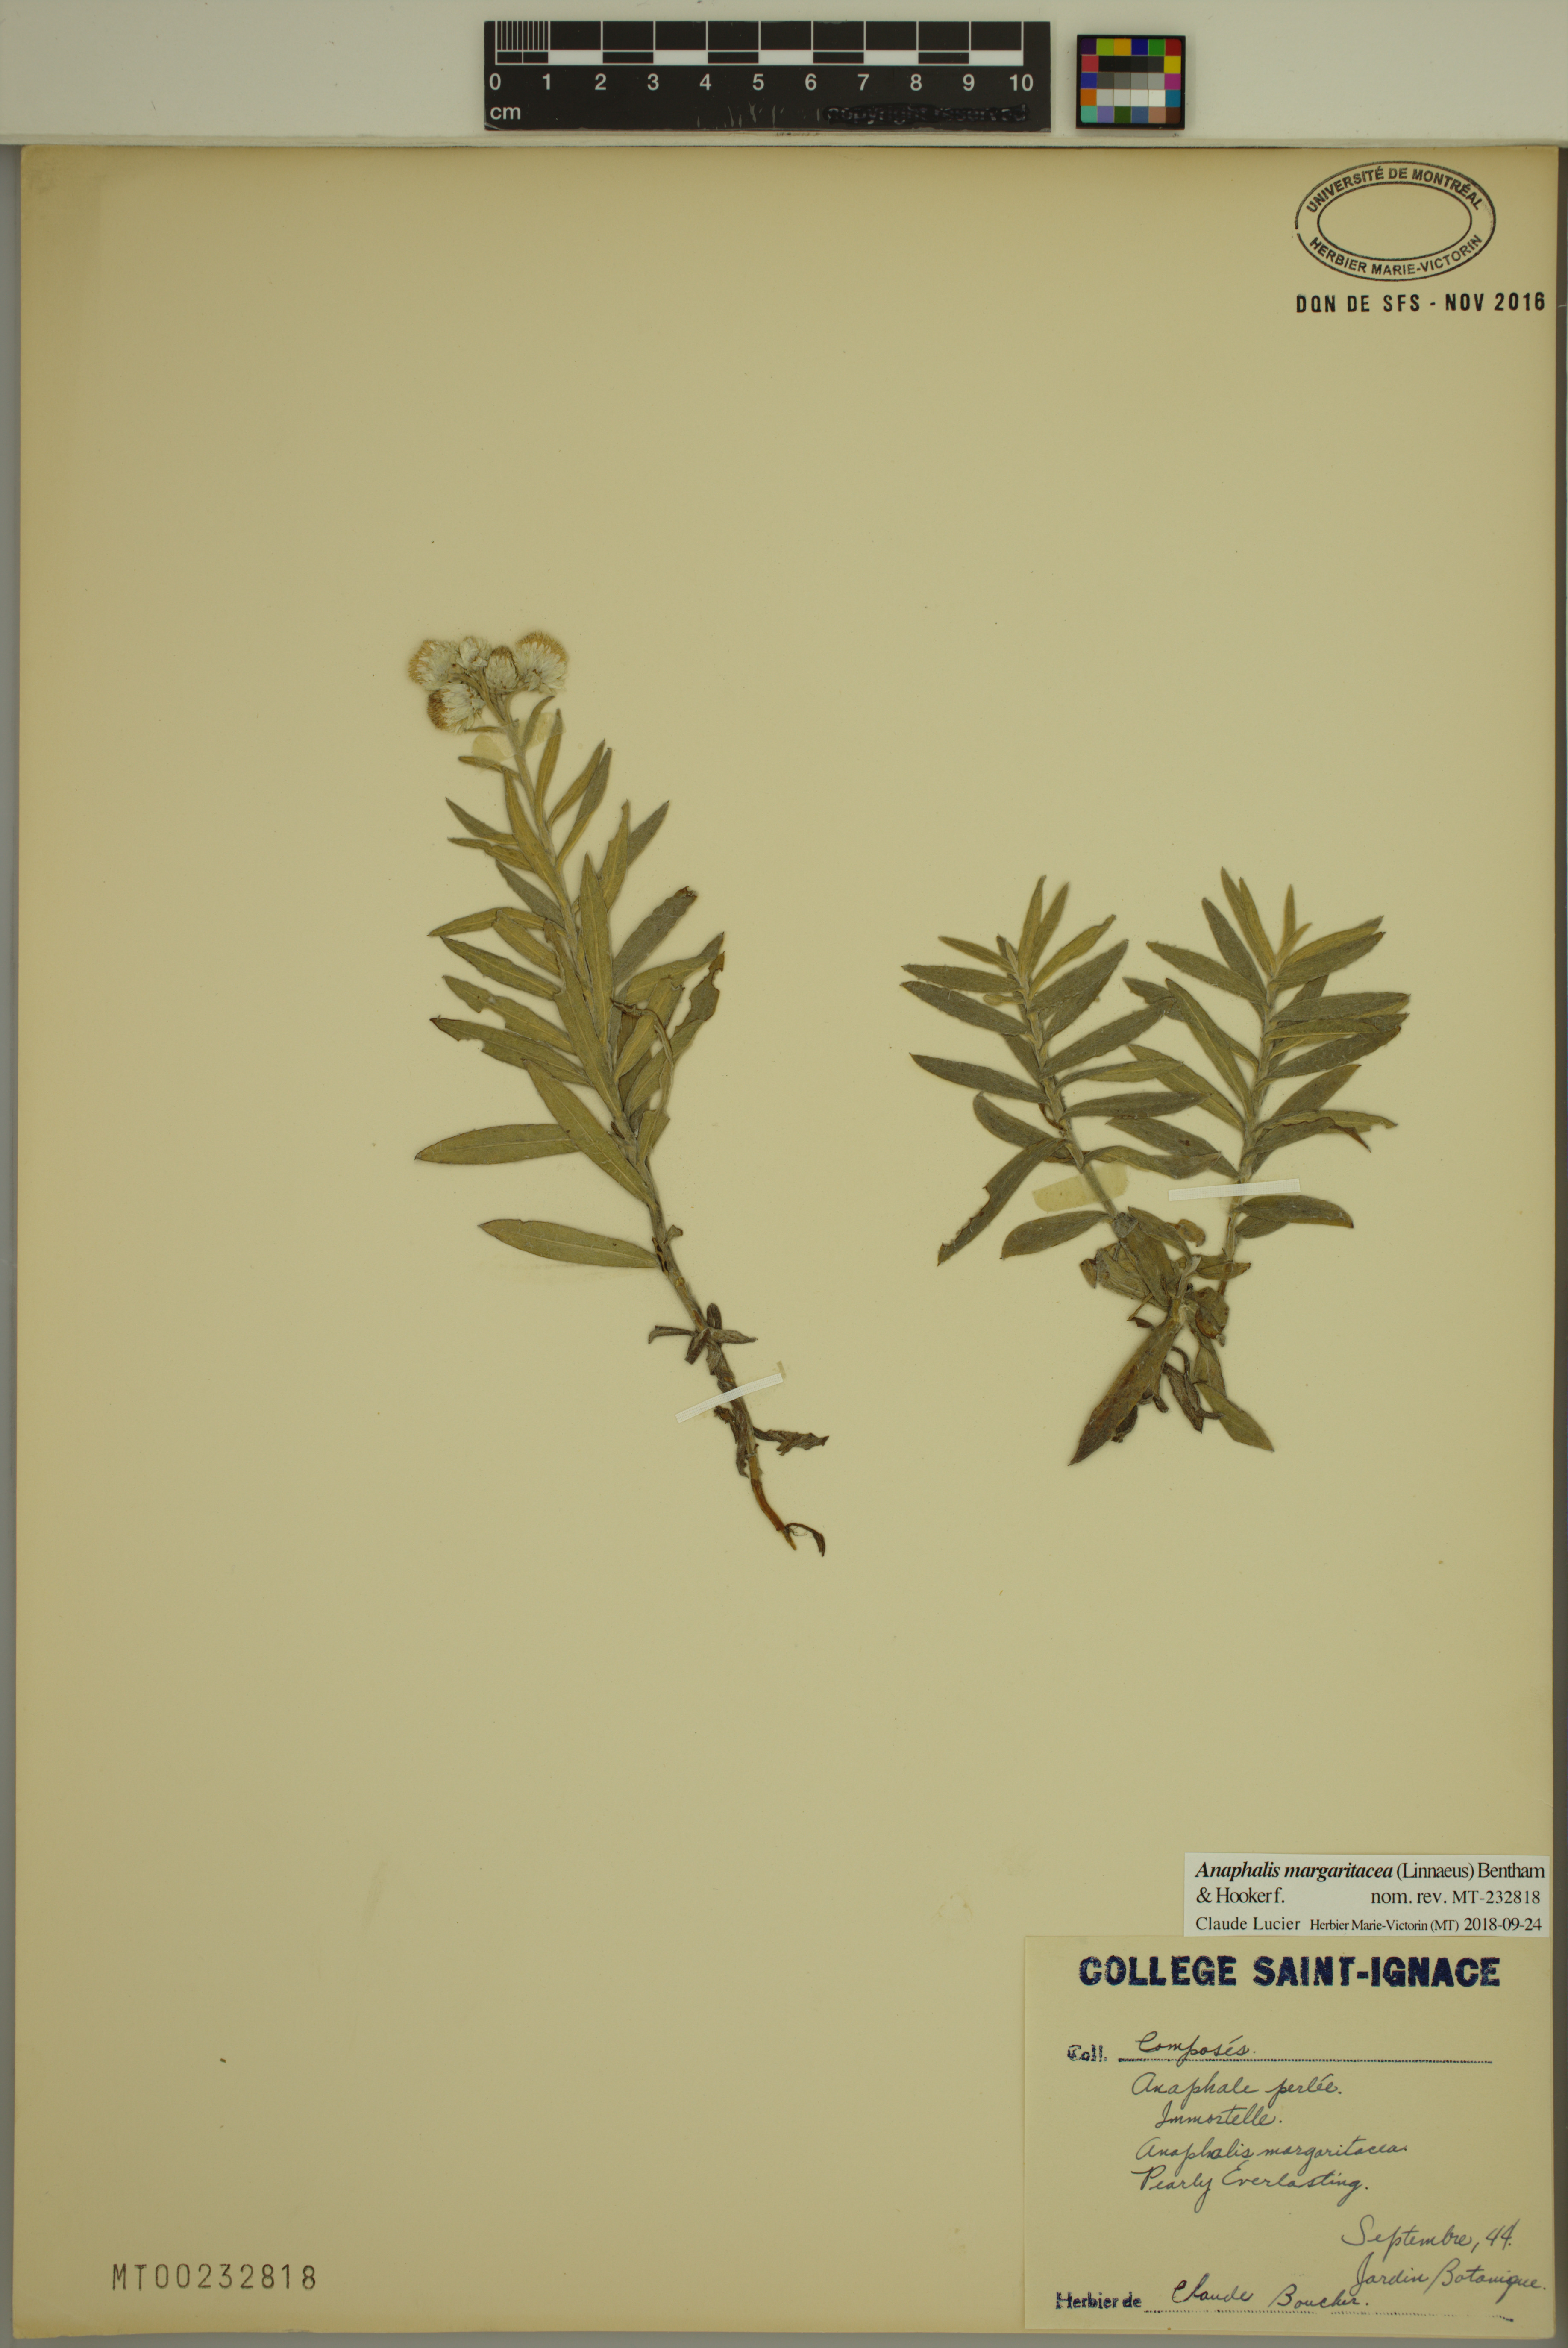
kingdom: Plantae
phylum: Tracheophyta
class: Magnoliopsida
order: Asterales
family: Asteraceae
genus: Anaphalis
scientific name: Anaphalis margaritacea
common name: Pearly everlasting
